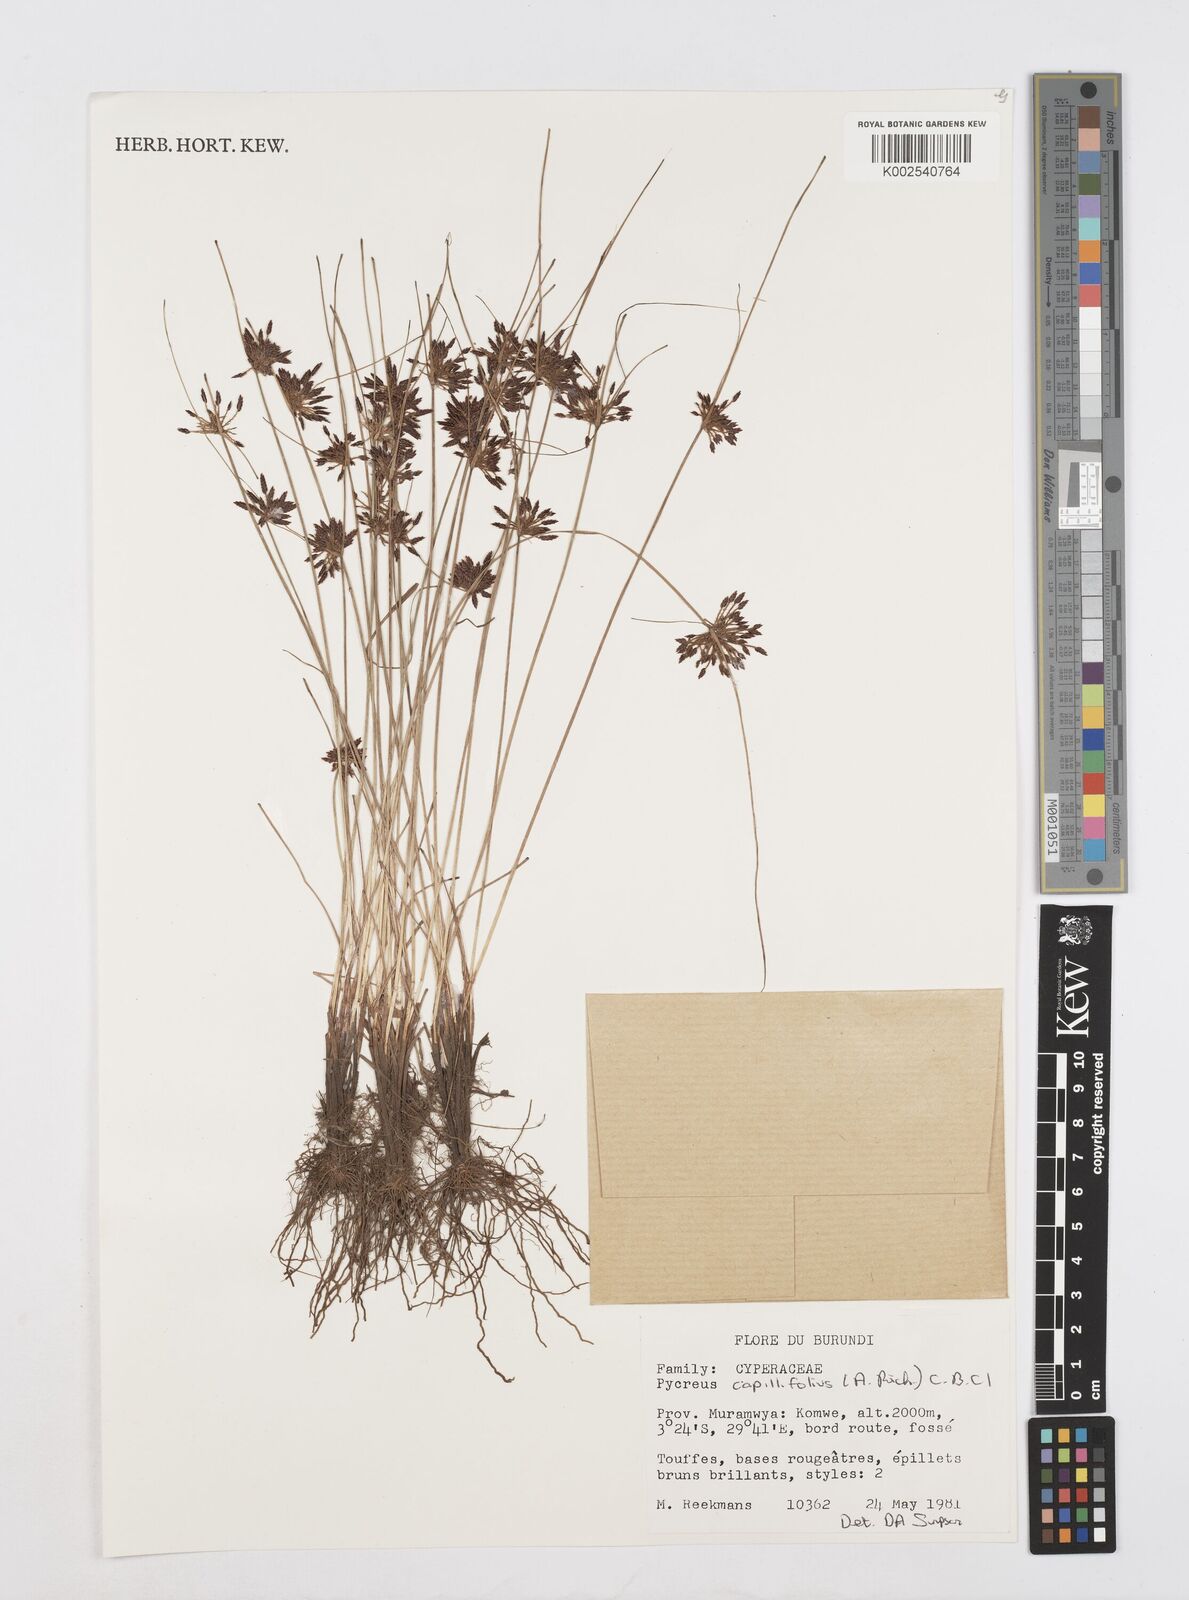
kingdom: Plantae
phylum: Tracheophyta
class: Liliopsida
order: Poales
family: Cyperaceae
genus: Cyperus
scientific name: Cyperus capillifolius
